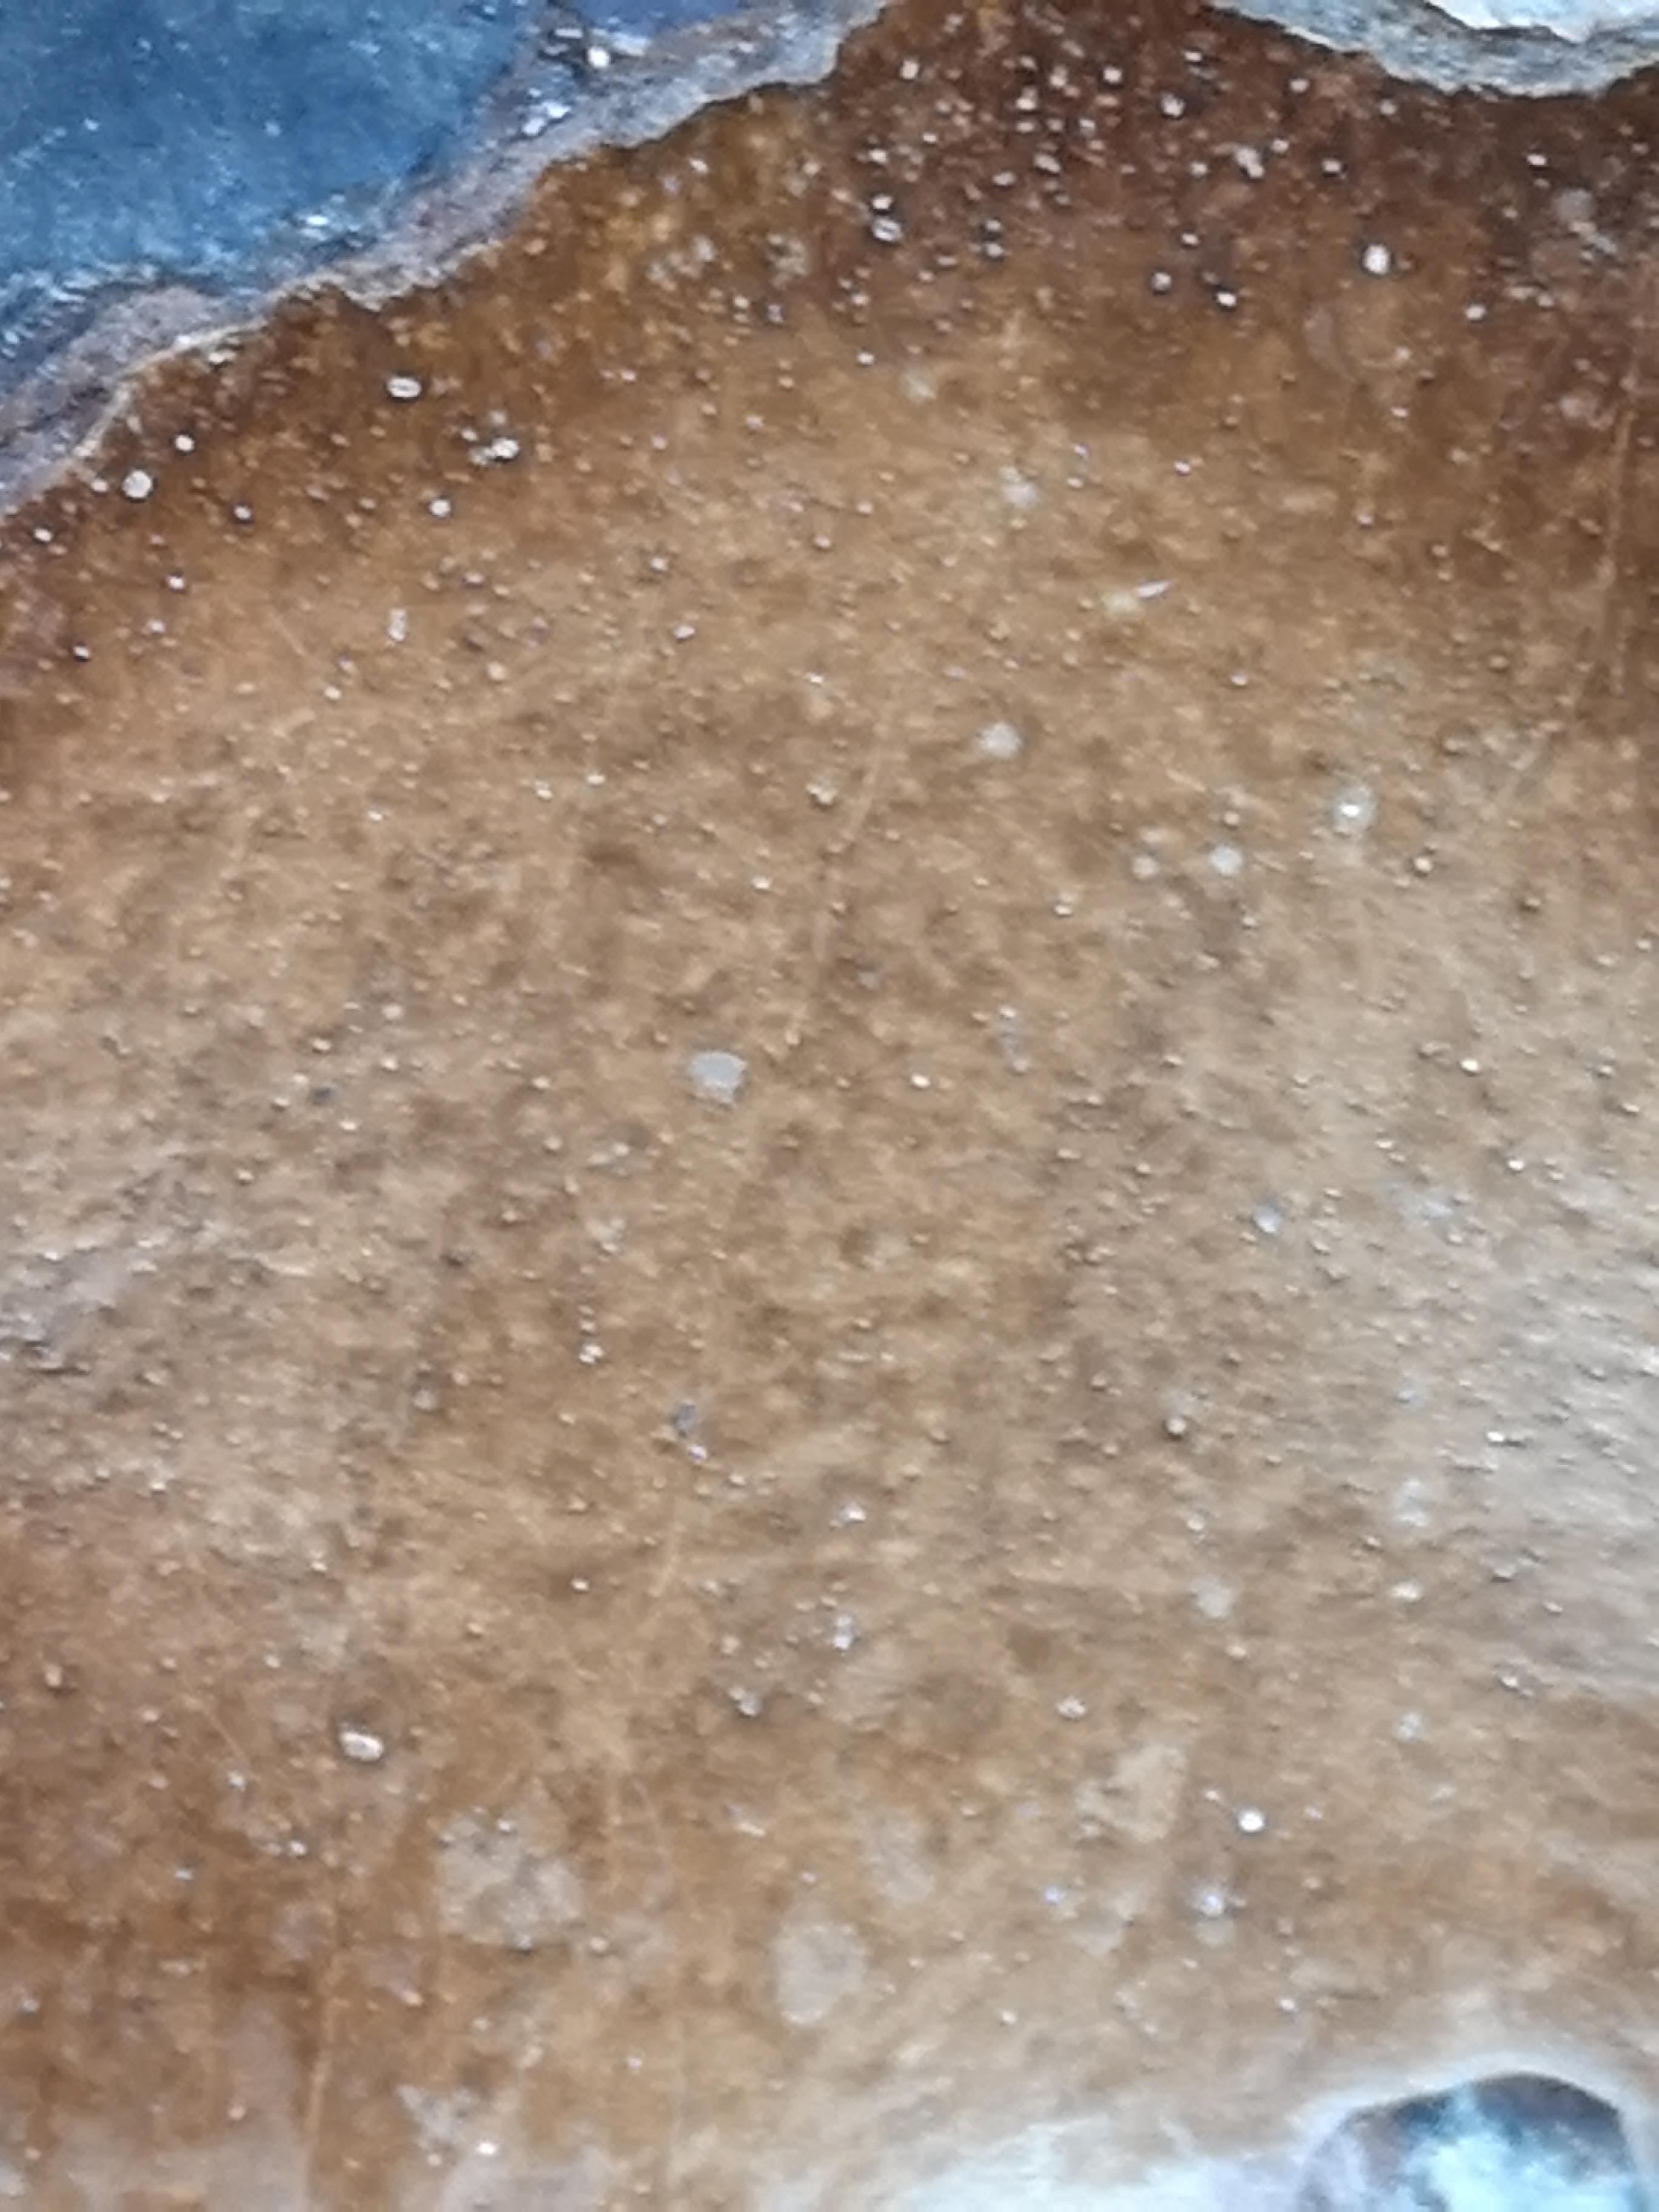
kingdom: Fungi
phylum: Basidiomycota
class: Agaricomycetes
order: Hymenochaetales
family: Hymenochaetaceae
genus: Phellinus
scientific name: Phellinus populicola
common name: poppel-ildporesvamp
